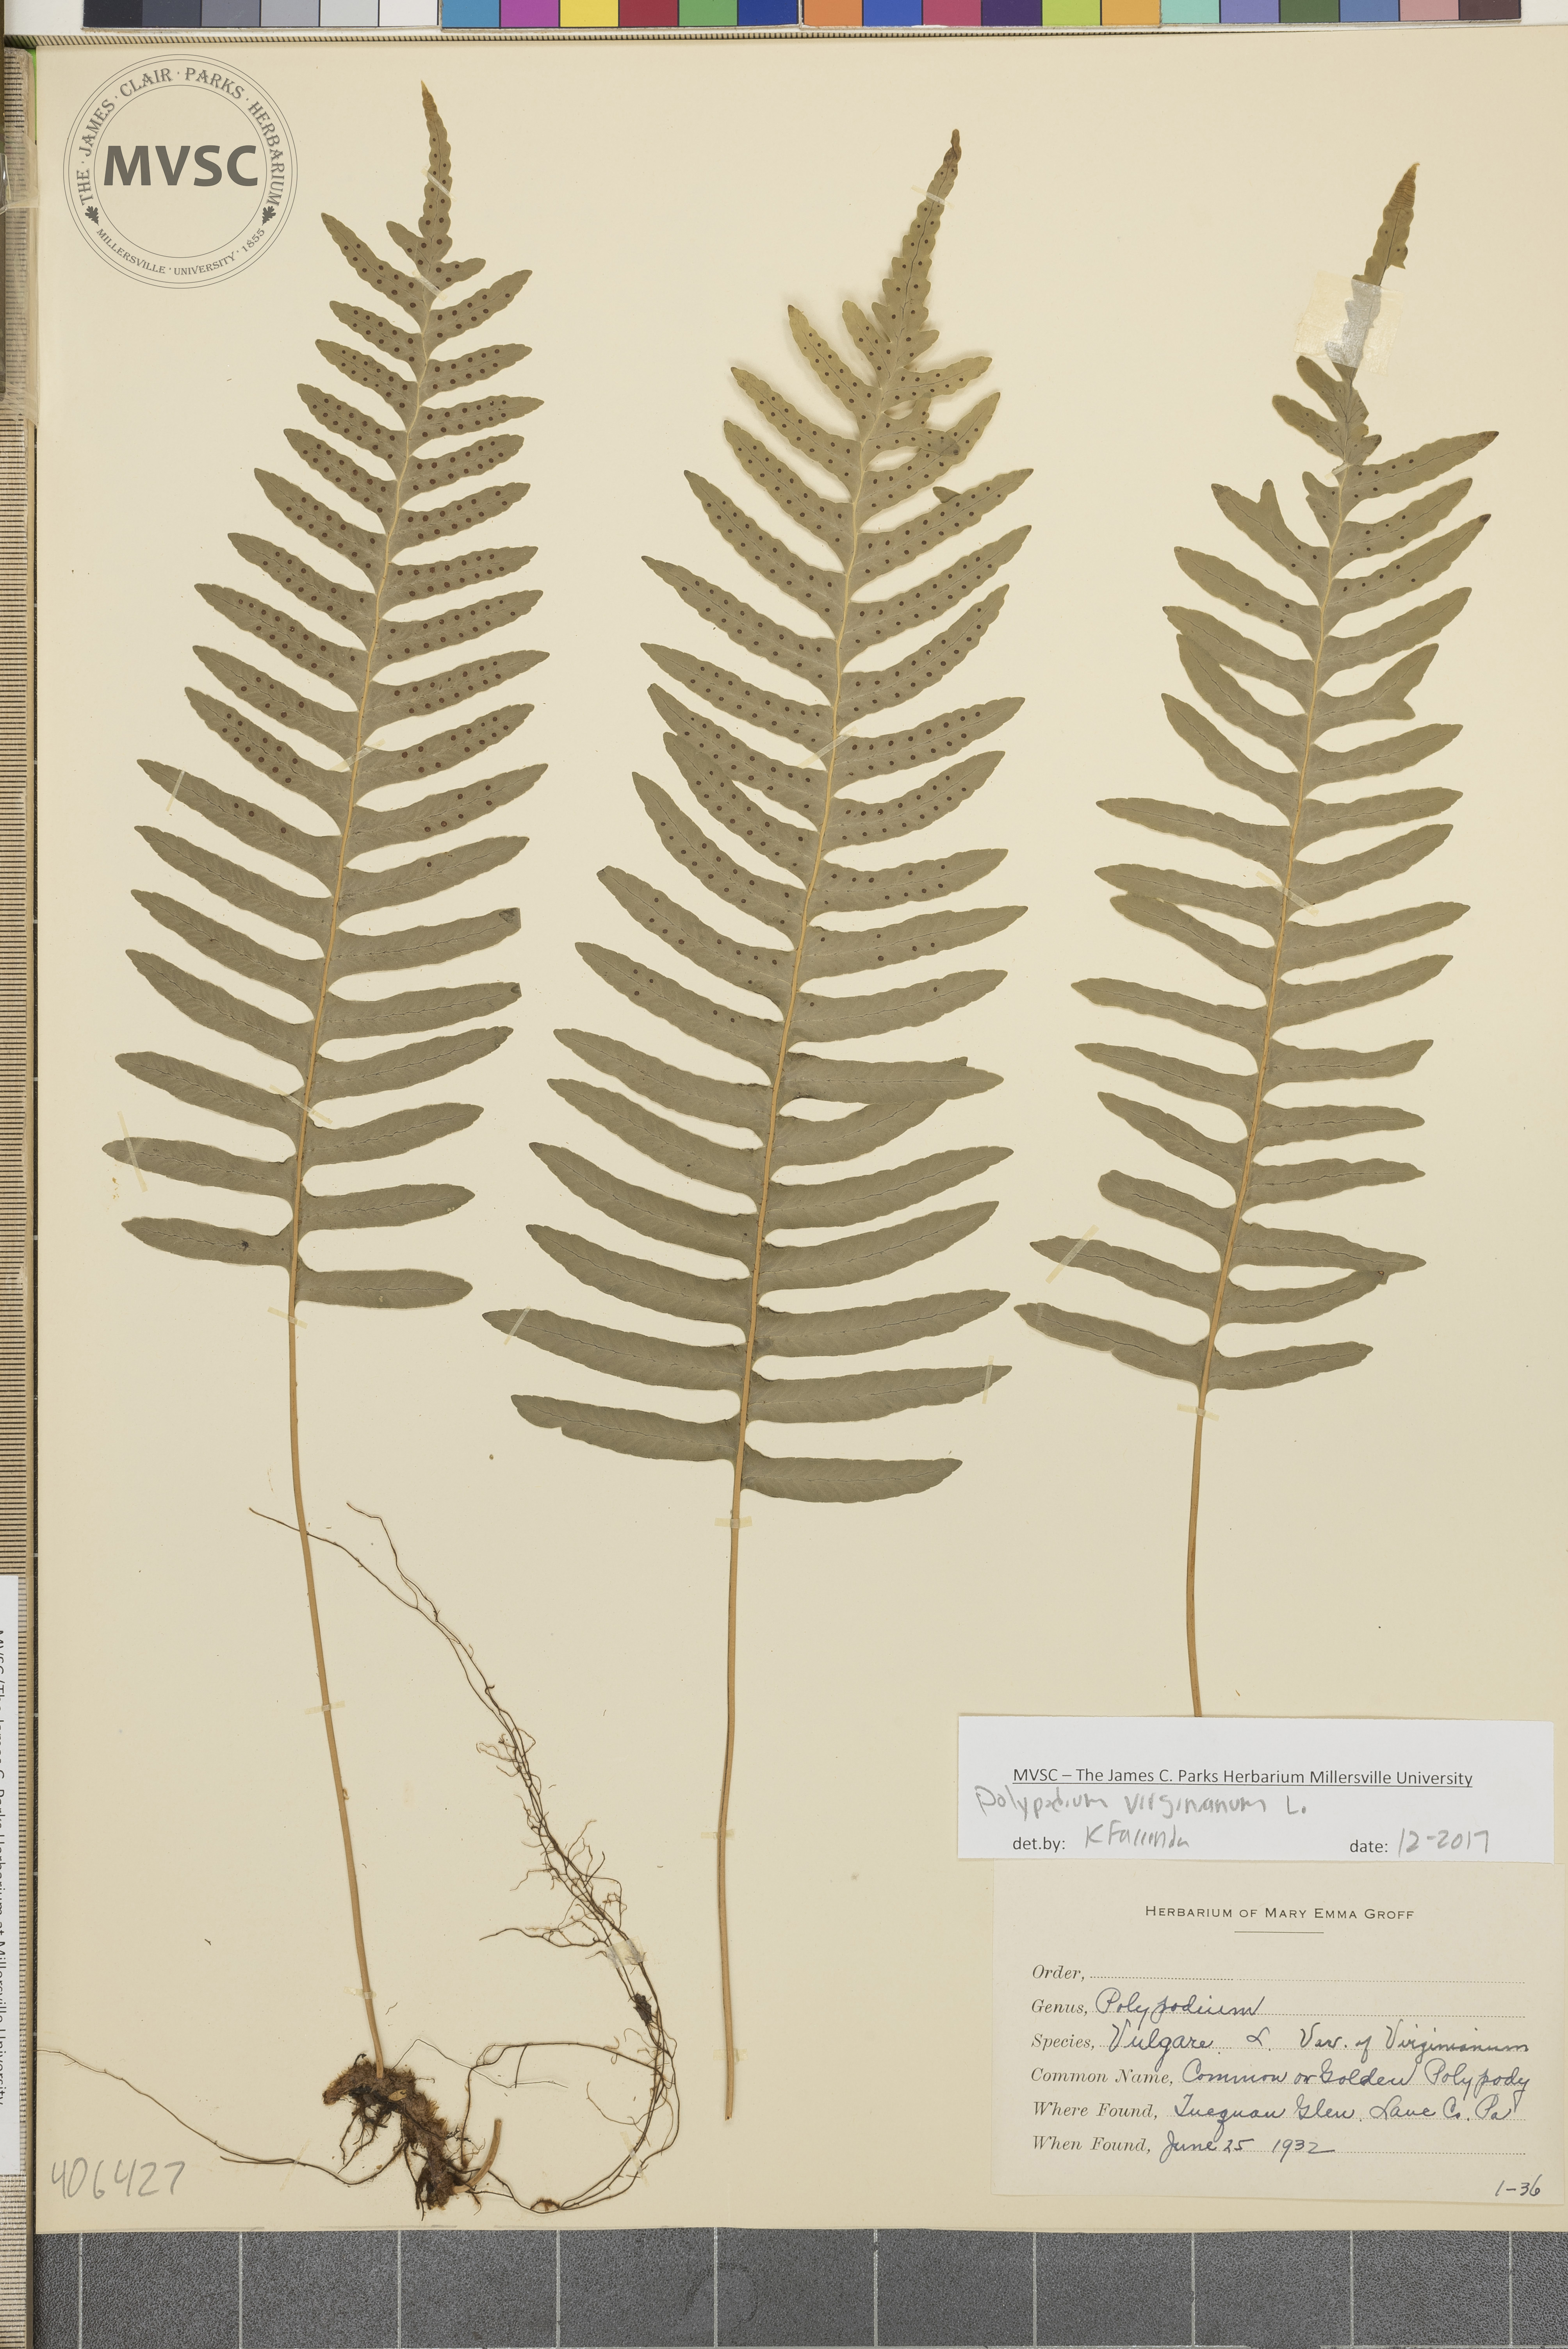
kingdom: Plantae
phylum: Tracheophyta
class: Polypodiopsida
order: Polypodiales
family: Polypodiaceae
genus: Polypodium
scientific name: Polypodium virginianum
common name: American wall fern
